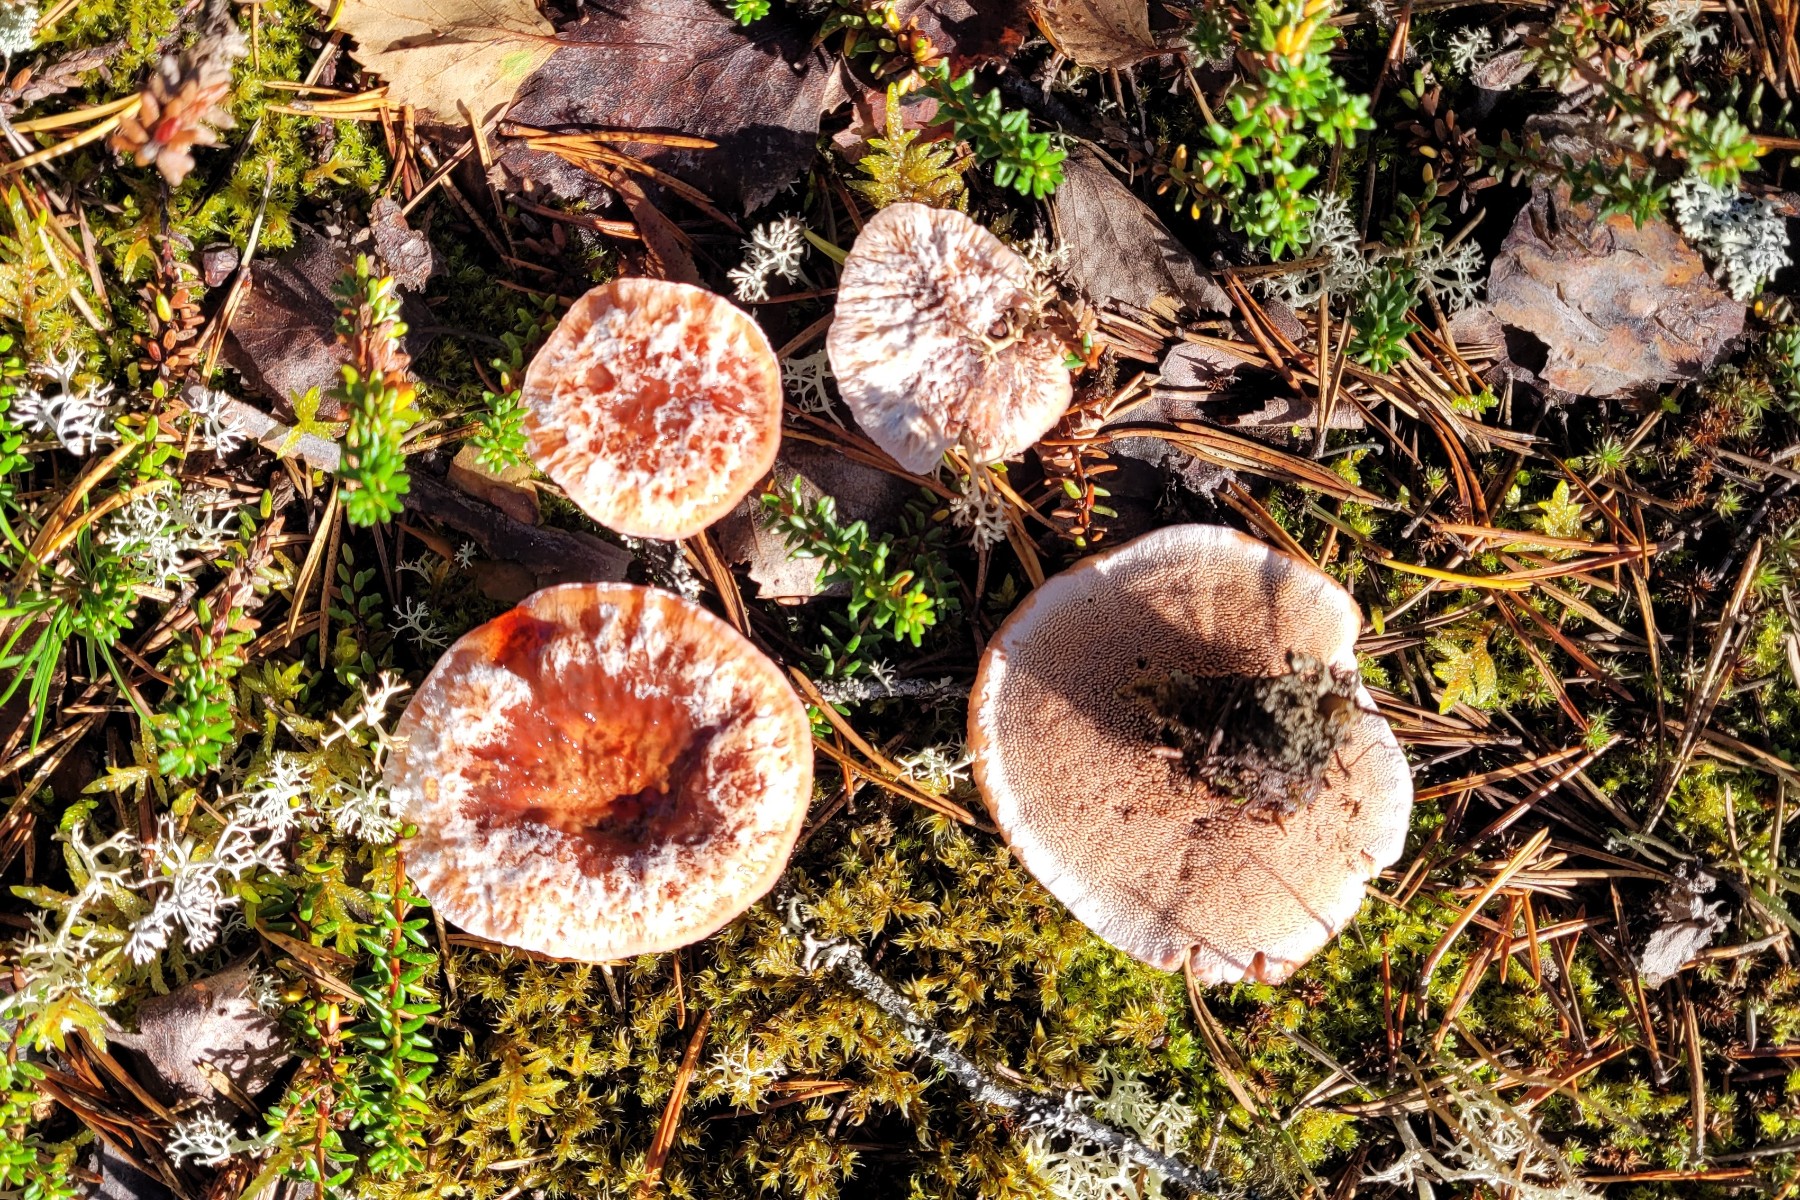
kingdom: Fungi
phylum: Basidiomycota
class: Agaricomycetes
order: Thelephorales
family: Bankeraceae
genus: Hydnellum
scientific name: Hydnellum peckii
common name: bitter korkpigsvamp
